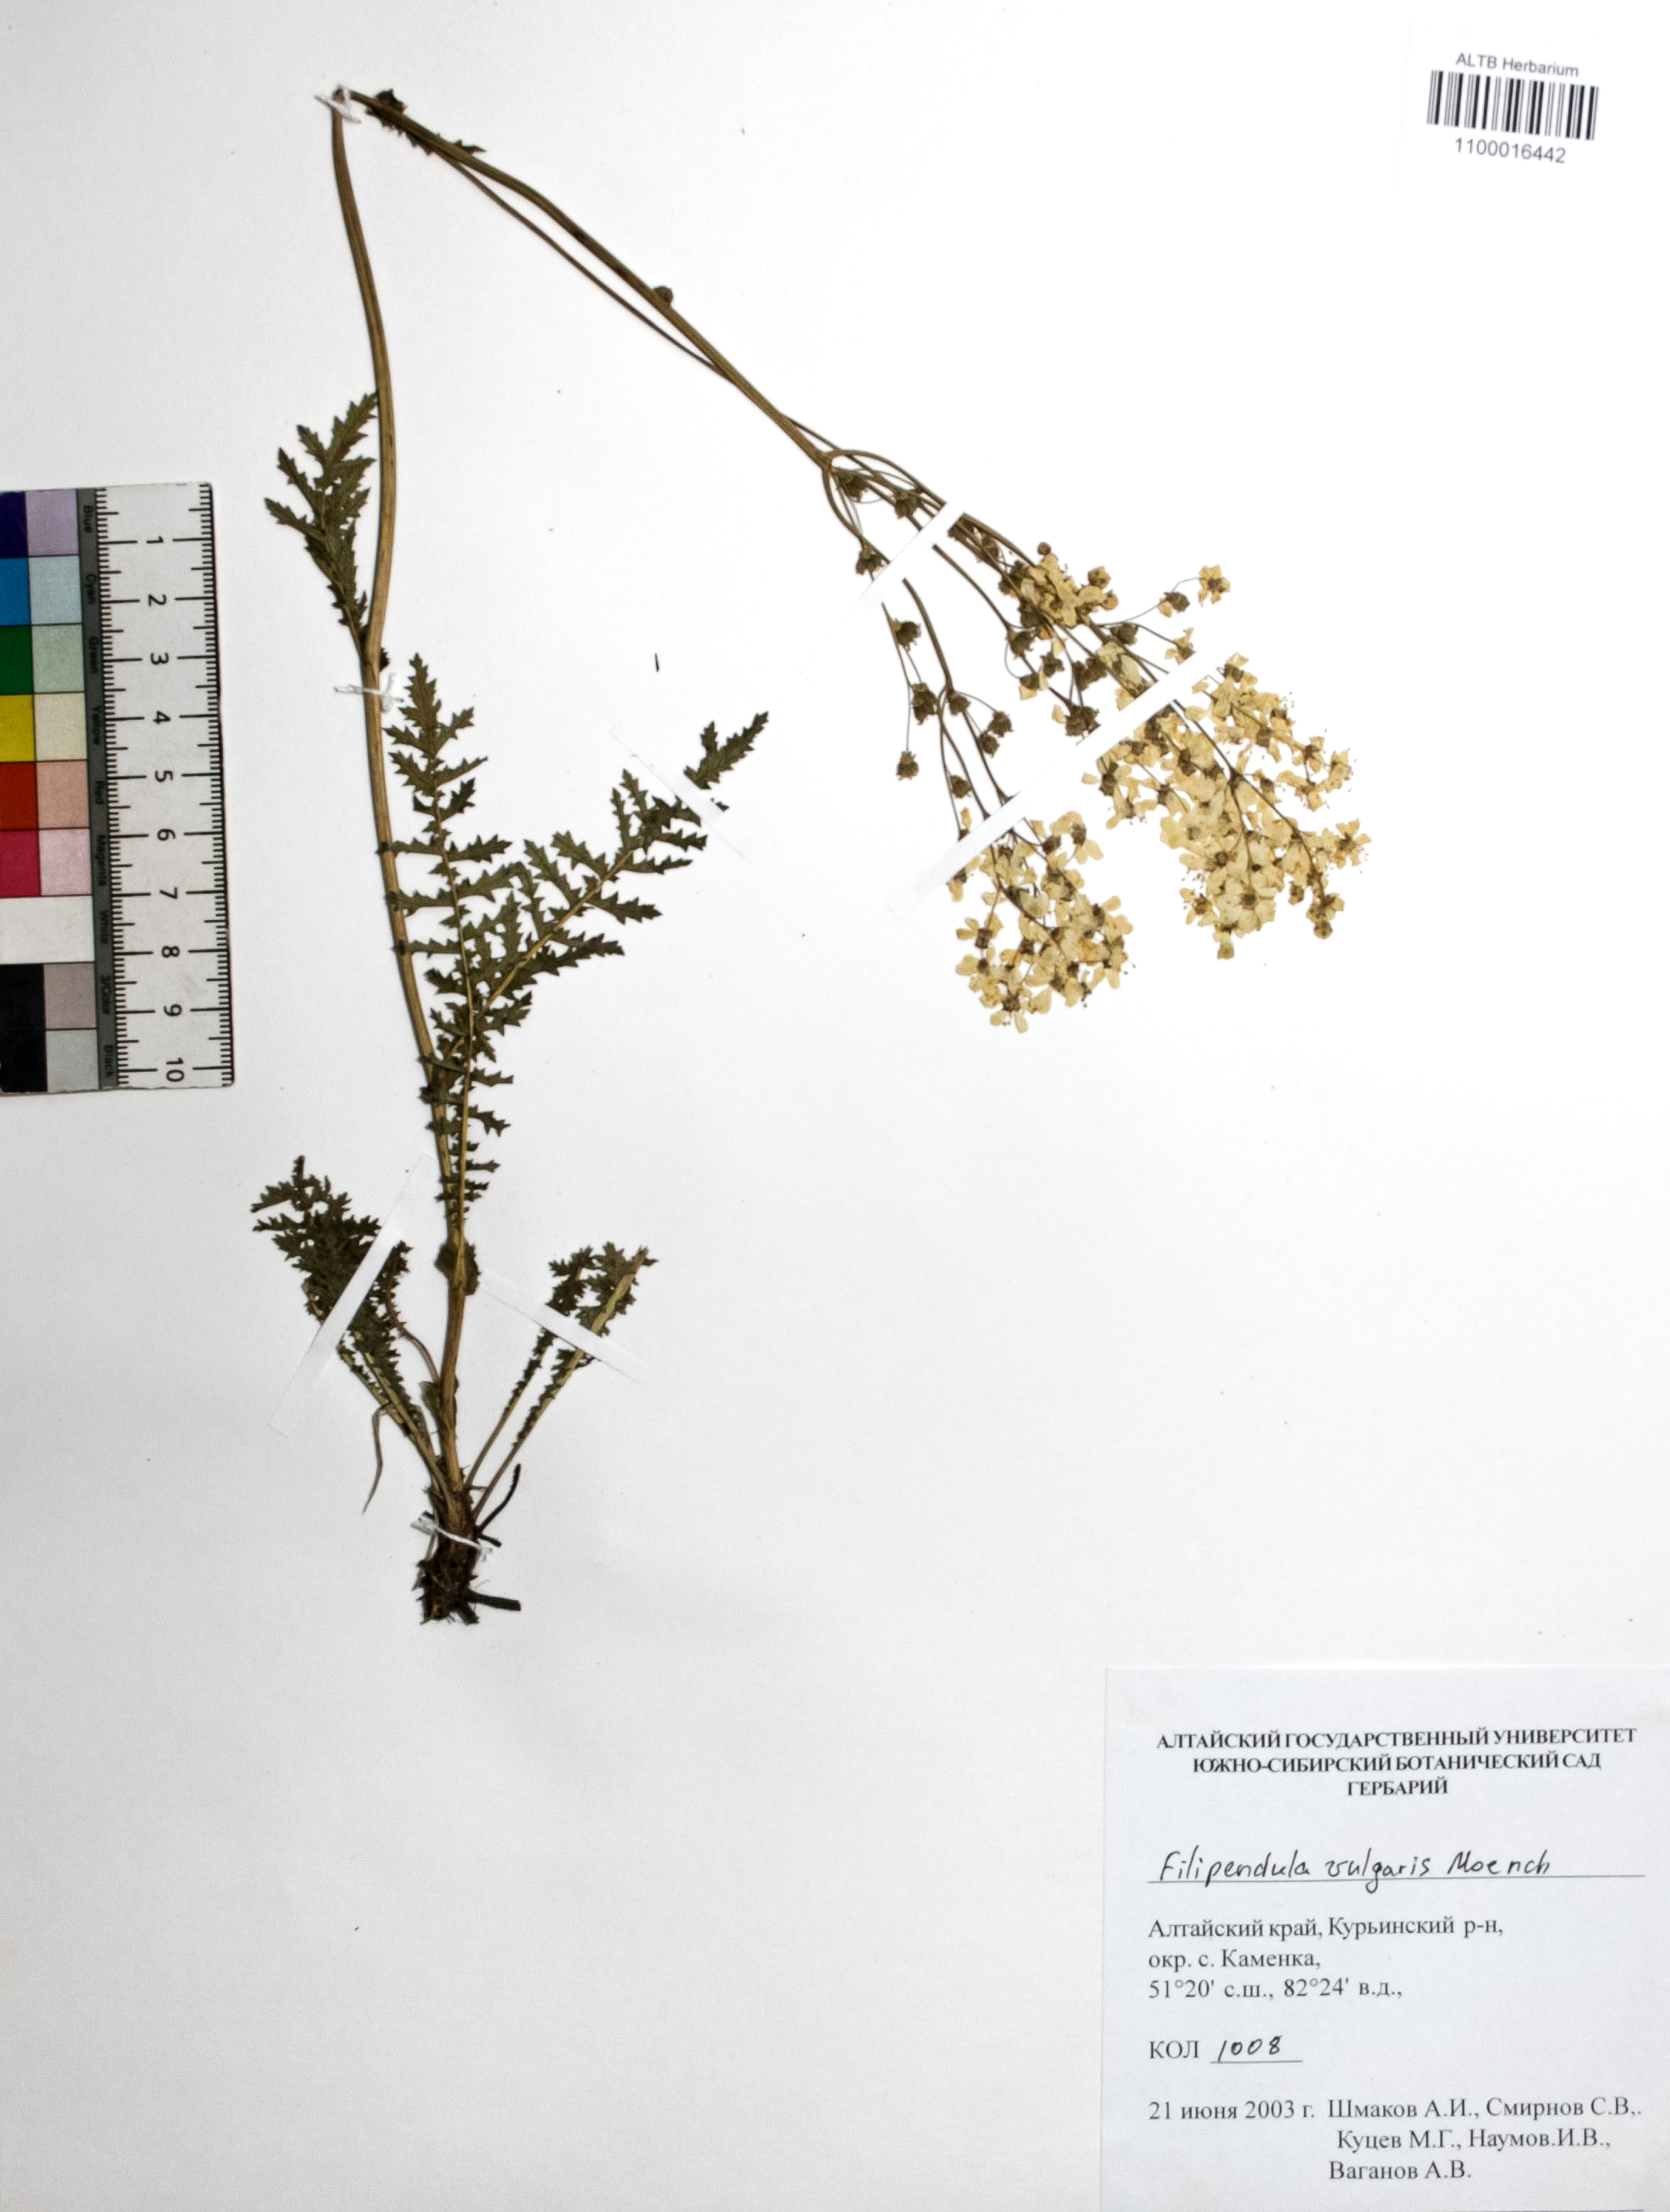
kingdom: Plantae
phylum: Tracheophyta
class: Magnoliopsida
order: Rosales
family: Rosaceae
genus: Filipendula
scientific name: Filipendula vulgaris
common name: Dropwort
